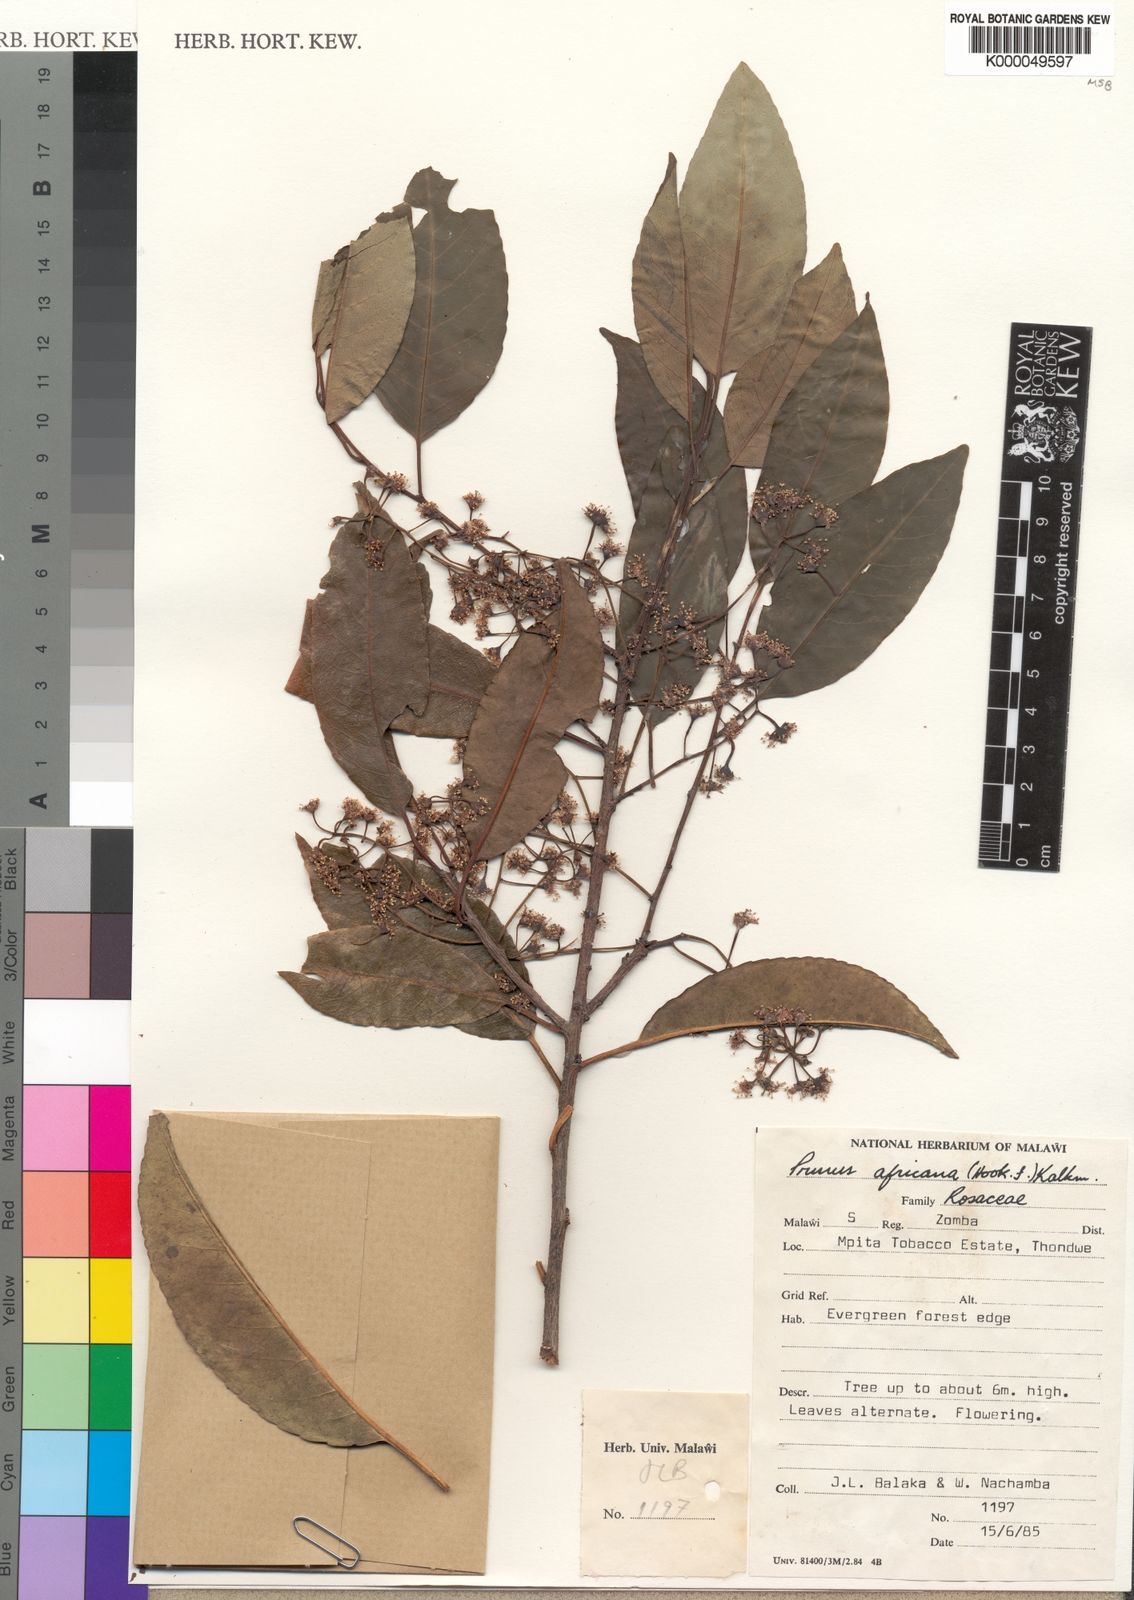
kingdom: Plantae
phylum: Tracheophyta
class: Magnoliopsida
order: Rosales
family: Rosaceae
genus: Prunus
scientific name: Prunus africana
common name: African cherry
